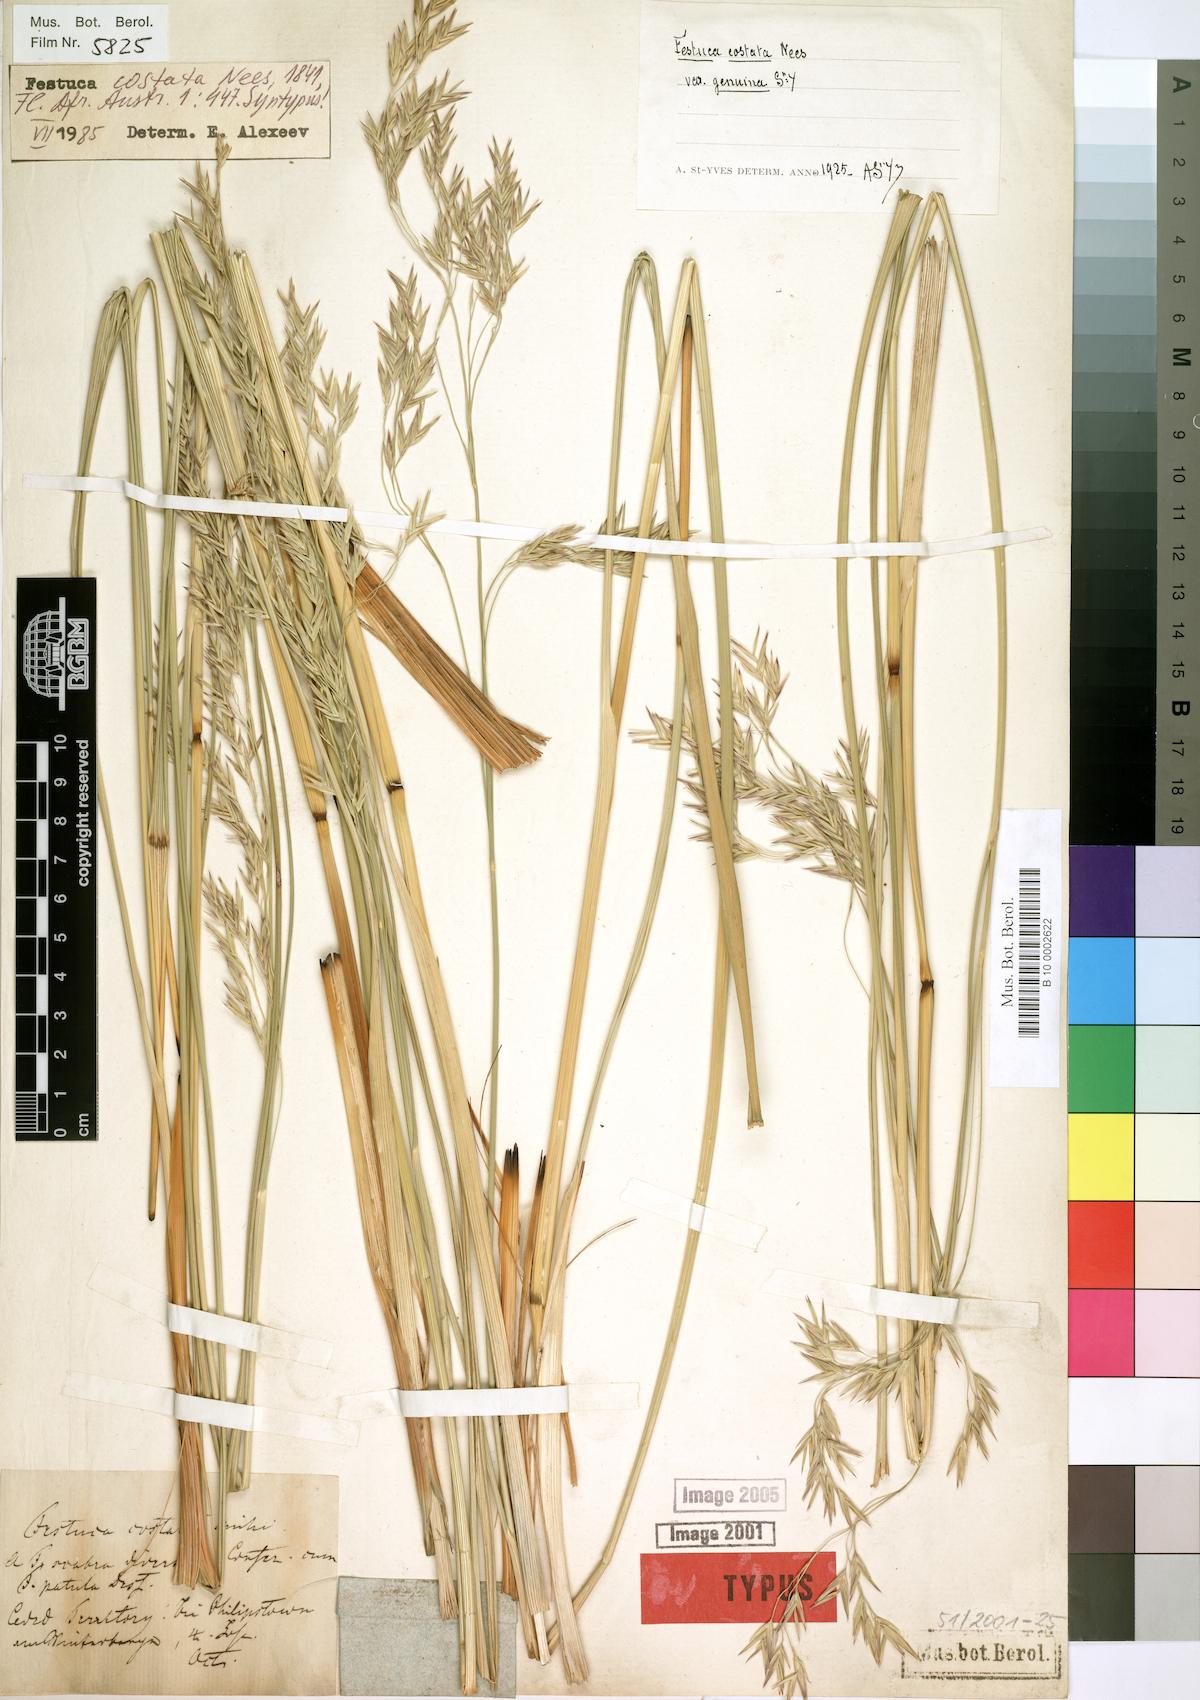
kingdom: Plantae
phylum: Tracheophyta
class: Liliopsida
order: Poales
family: Poaceae
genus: Festuca
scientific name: Festuca costata
